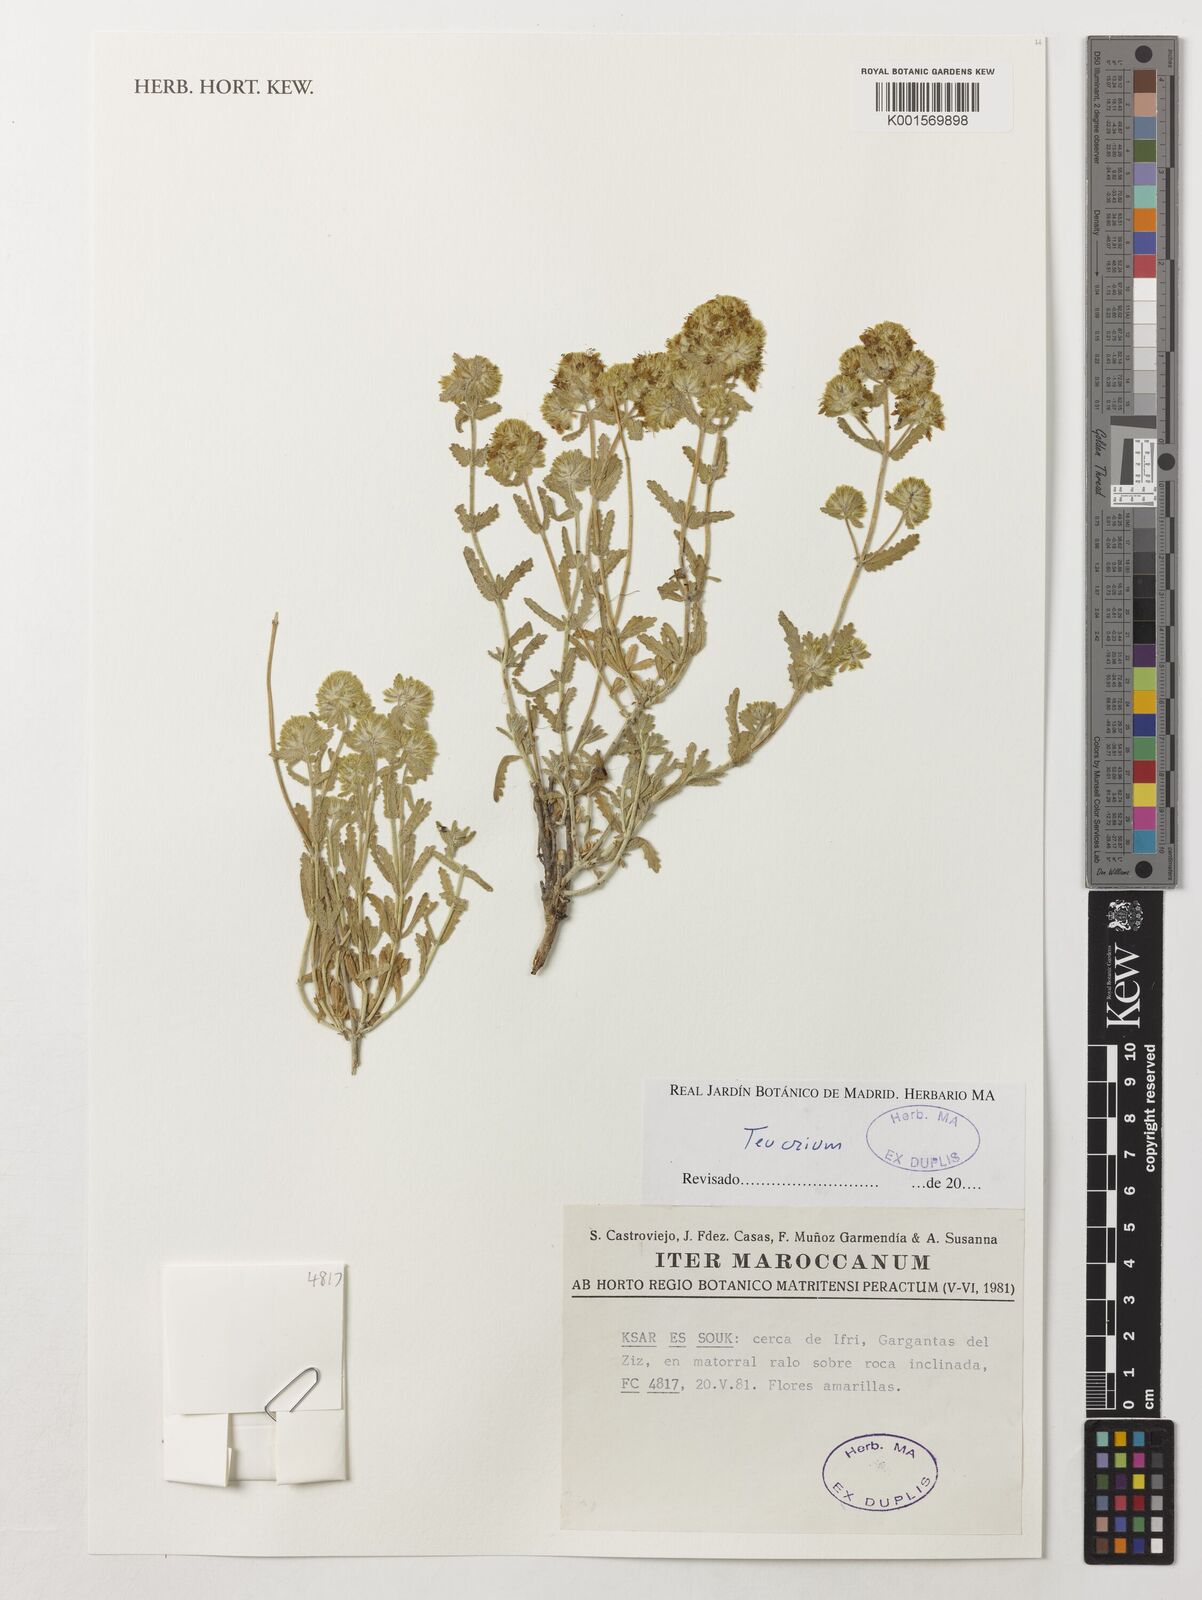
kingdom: Plantae
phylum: Tracheophyta
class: Magnoliopsida
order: Lamiales
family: Lamiaceae
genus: Teucrium
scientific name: Teucrium
